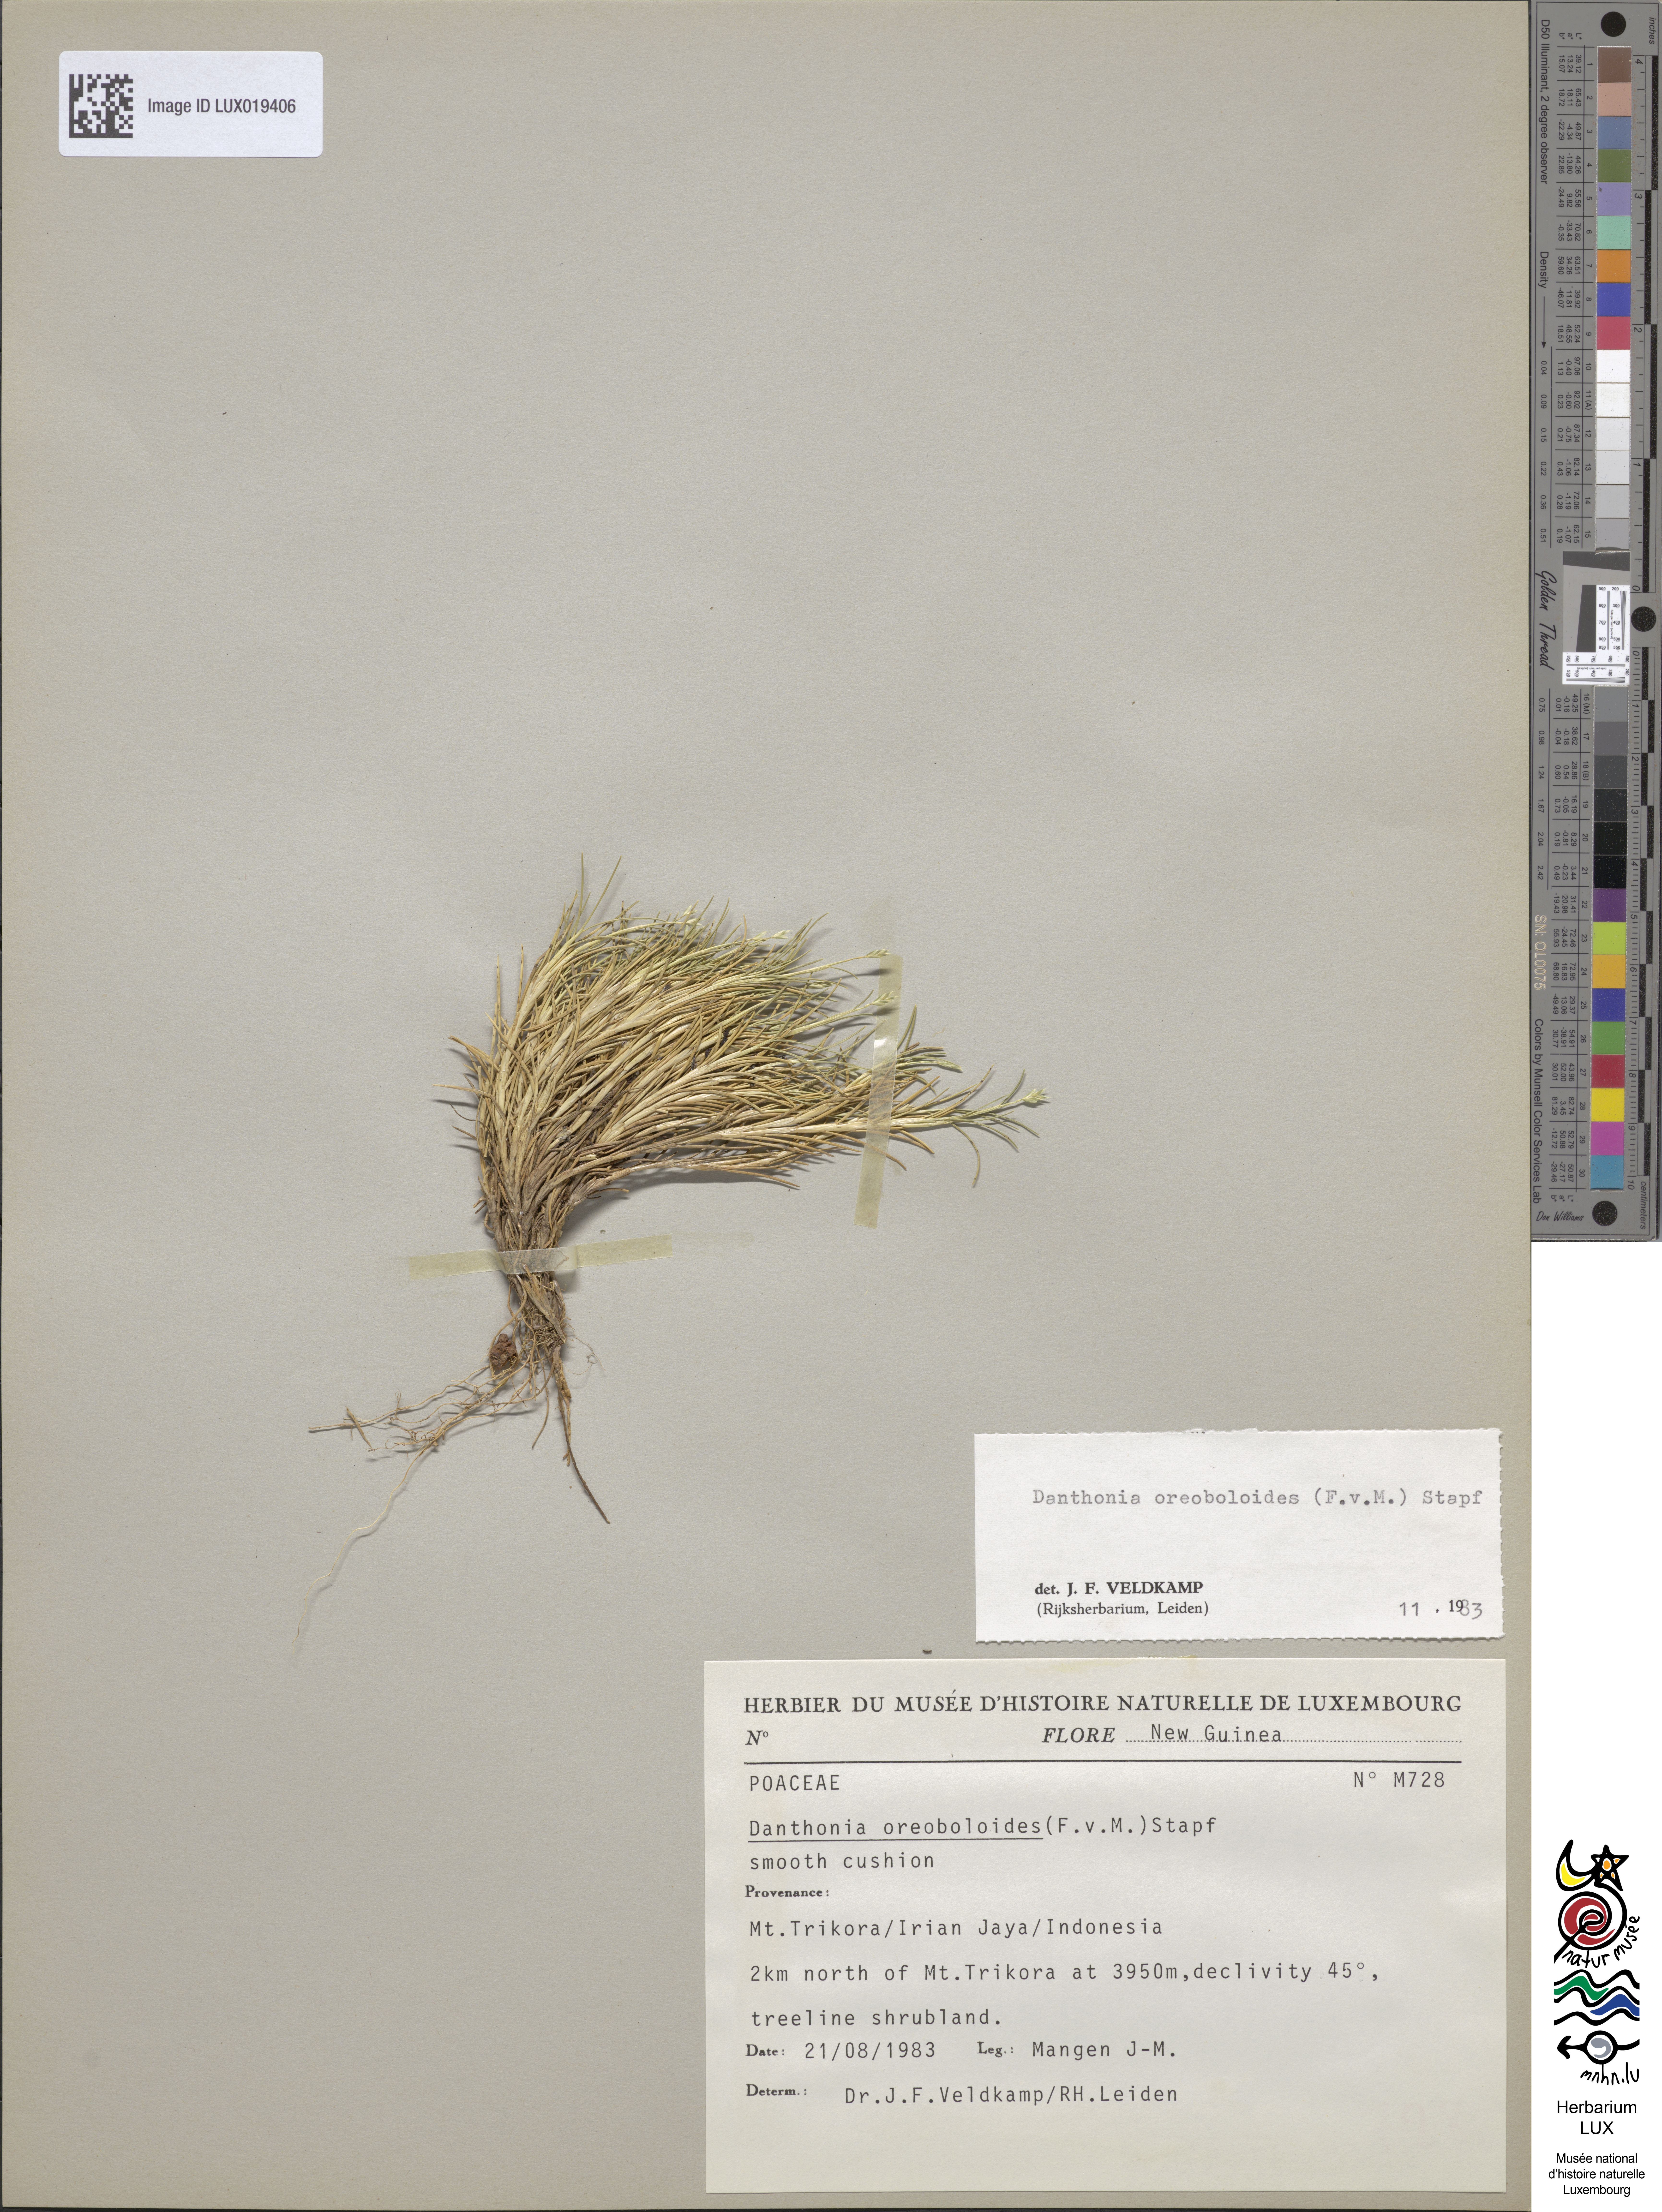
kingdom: Plantae
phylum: Tracheophyta
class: Liliopsida
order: Poales
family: Poaceae
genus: Rytidosperma
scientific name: Rytidosperma oreoboloides
